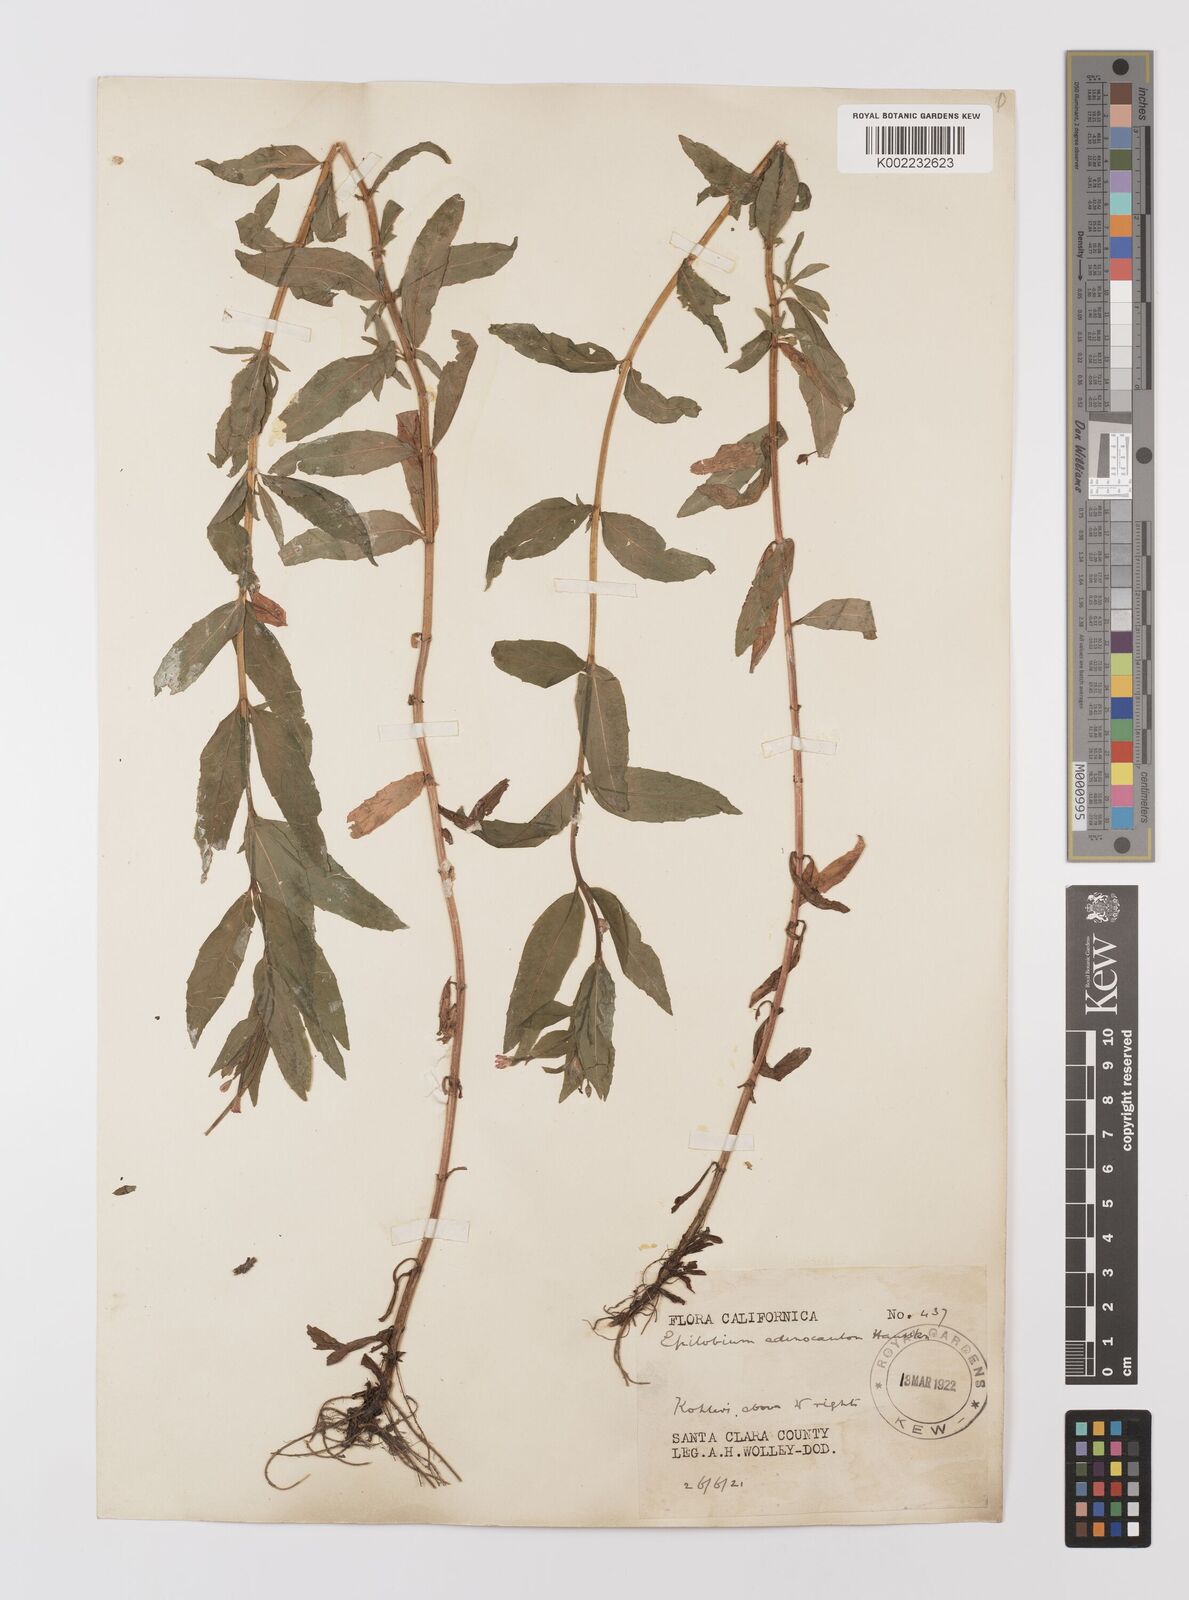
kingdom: Plantae
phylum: Tracheophyta
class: Magnoliopsida
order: Myrtales
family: Onagraceae
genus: Epilobium
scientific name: Epilobium ciliatum
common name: American willowherb
